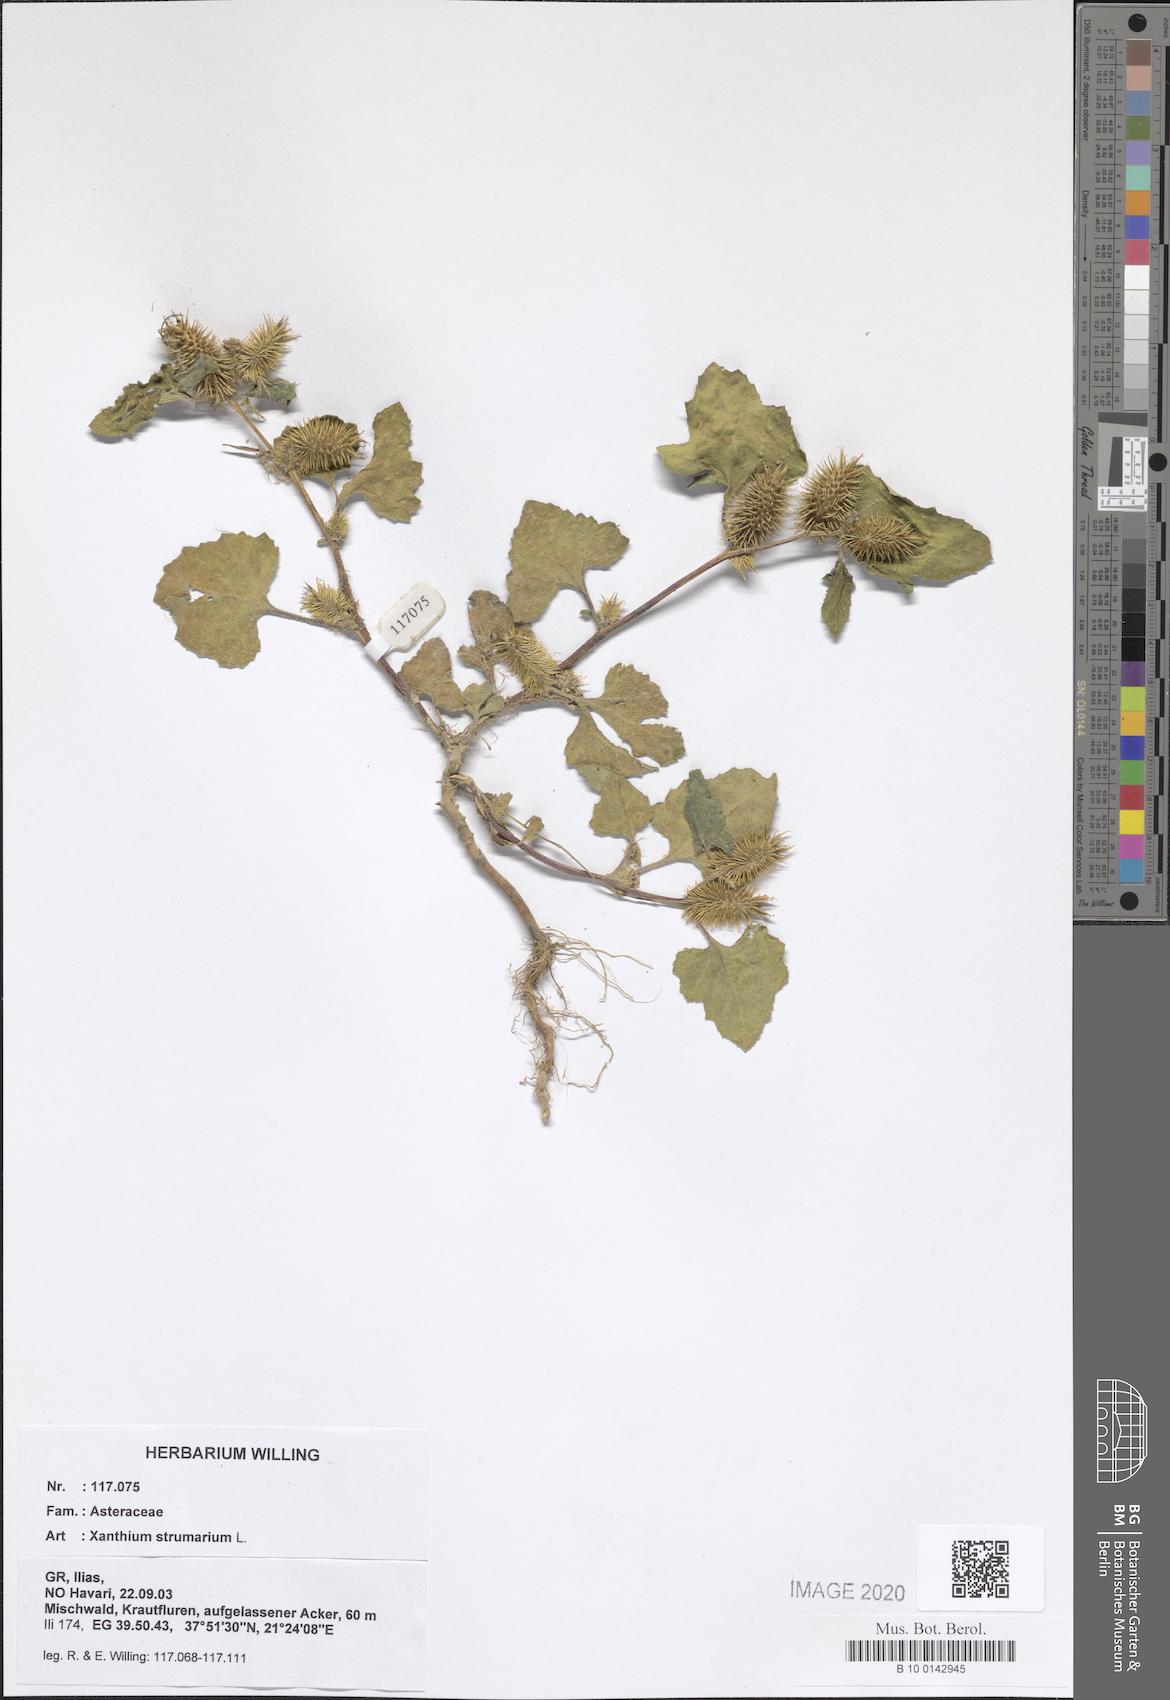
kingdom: Plantae
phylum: Tracheophyta
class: Magnoliopsida
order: Asterales
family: Asteraceae
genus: Xanthium
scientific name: Xanthium strumarium
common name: Rough cocklebur
